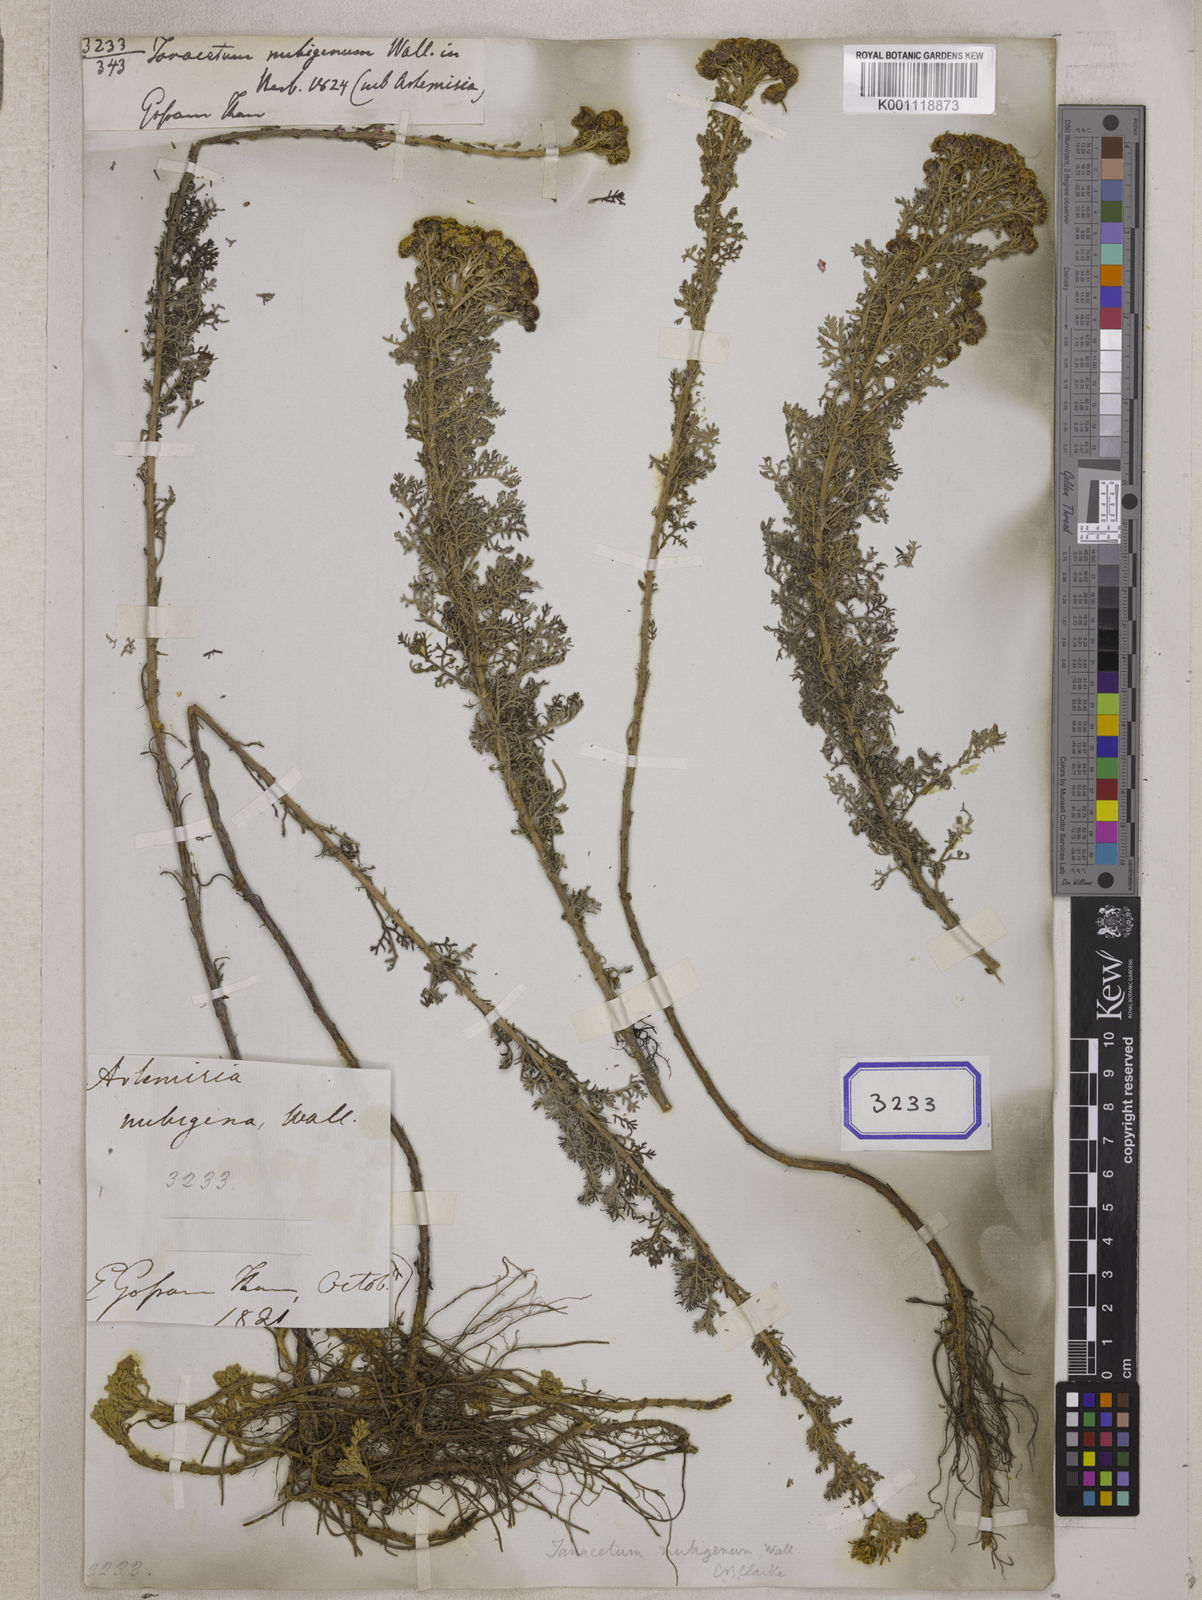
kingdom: Plantae
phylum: Tracheophyta
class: Magnoliopsida
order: Asterales
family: Asteraceae
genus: Ajania
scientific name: Ajania nubigena
